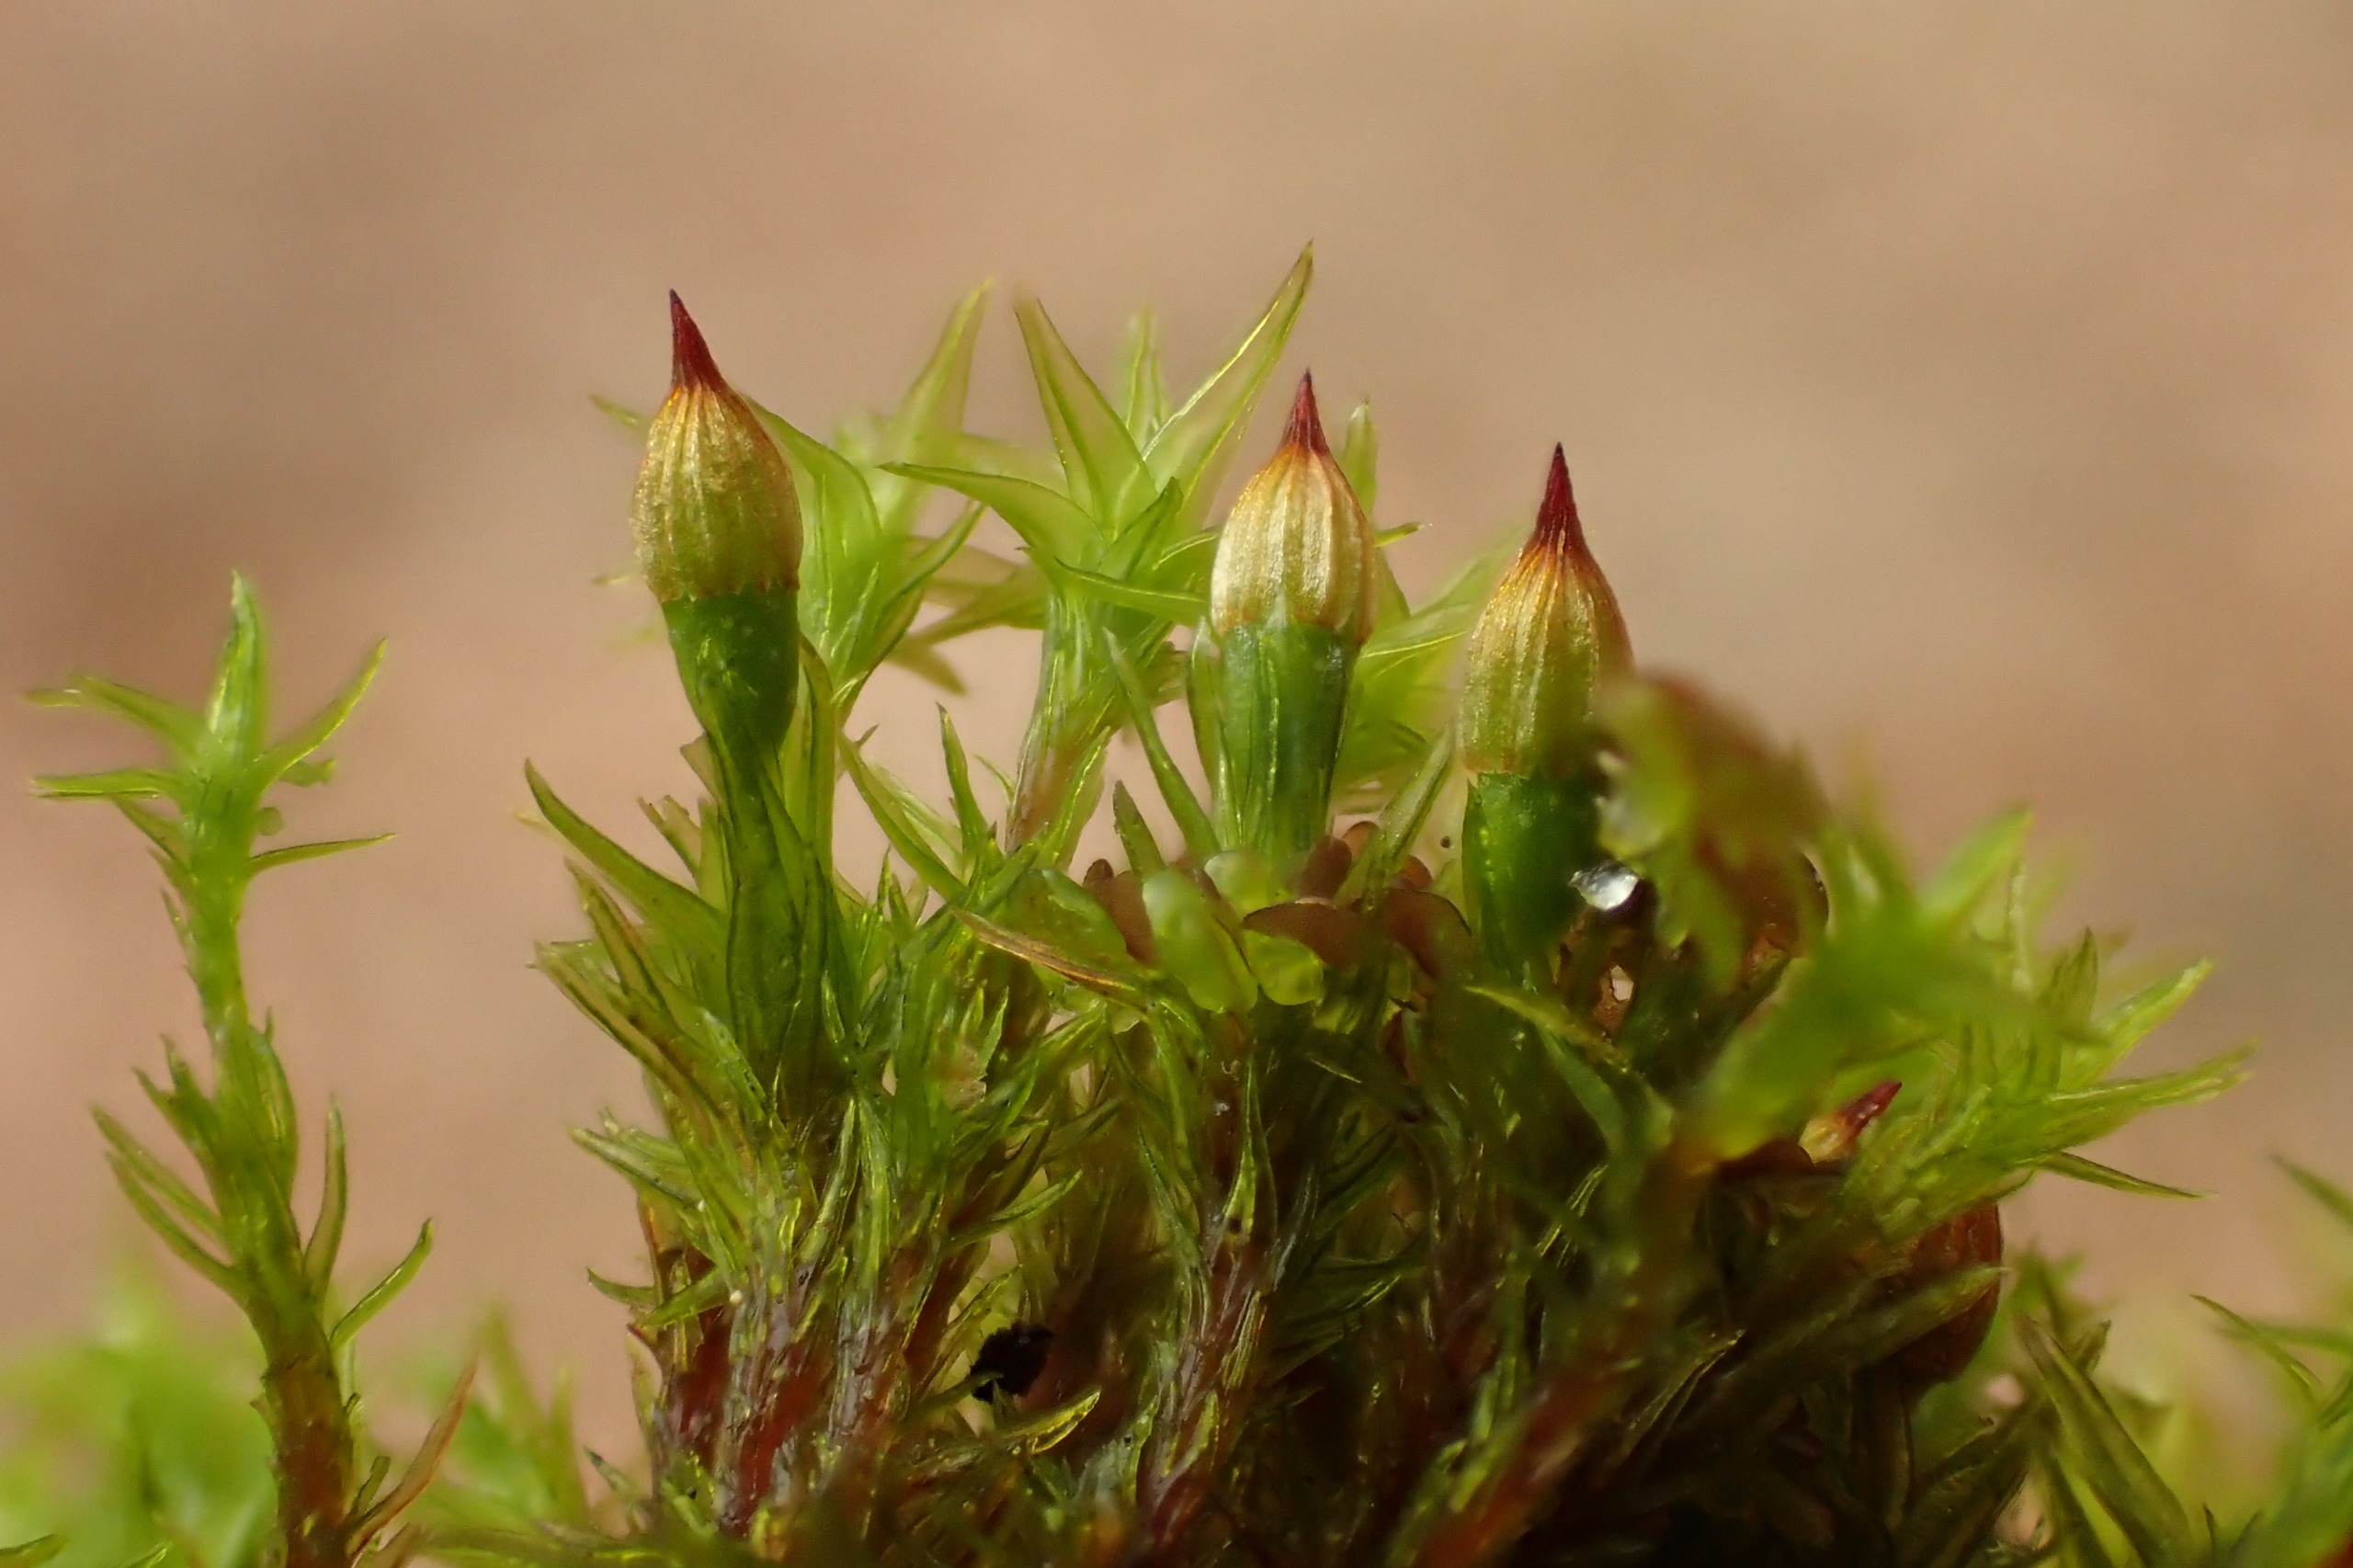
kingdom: Plantae
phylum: Bryophyta
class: Bryopsida
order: Orthotrichales
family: Orthotrichaceae
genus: Orthotrichum
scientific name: Orthotrichum stramineum
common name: Strågul furehætte
